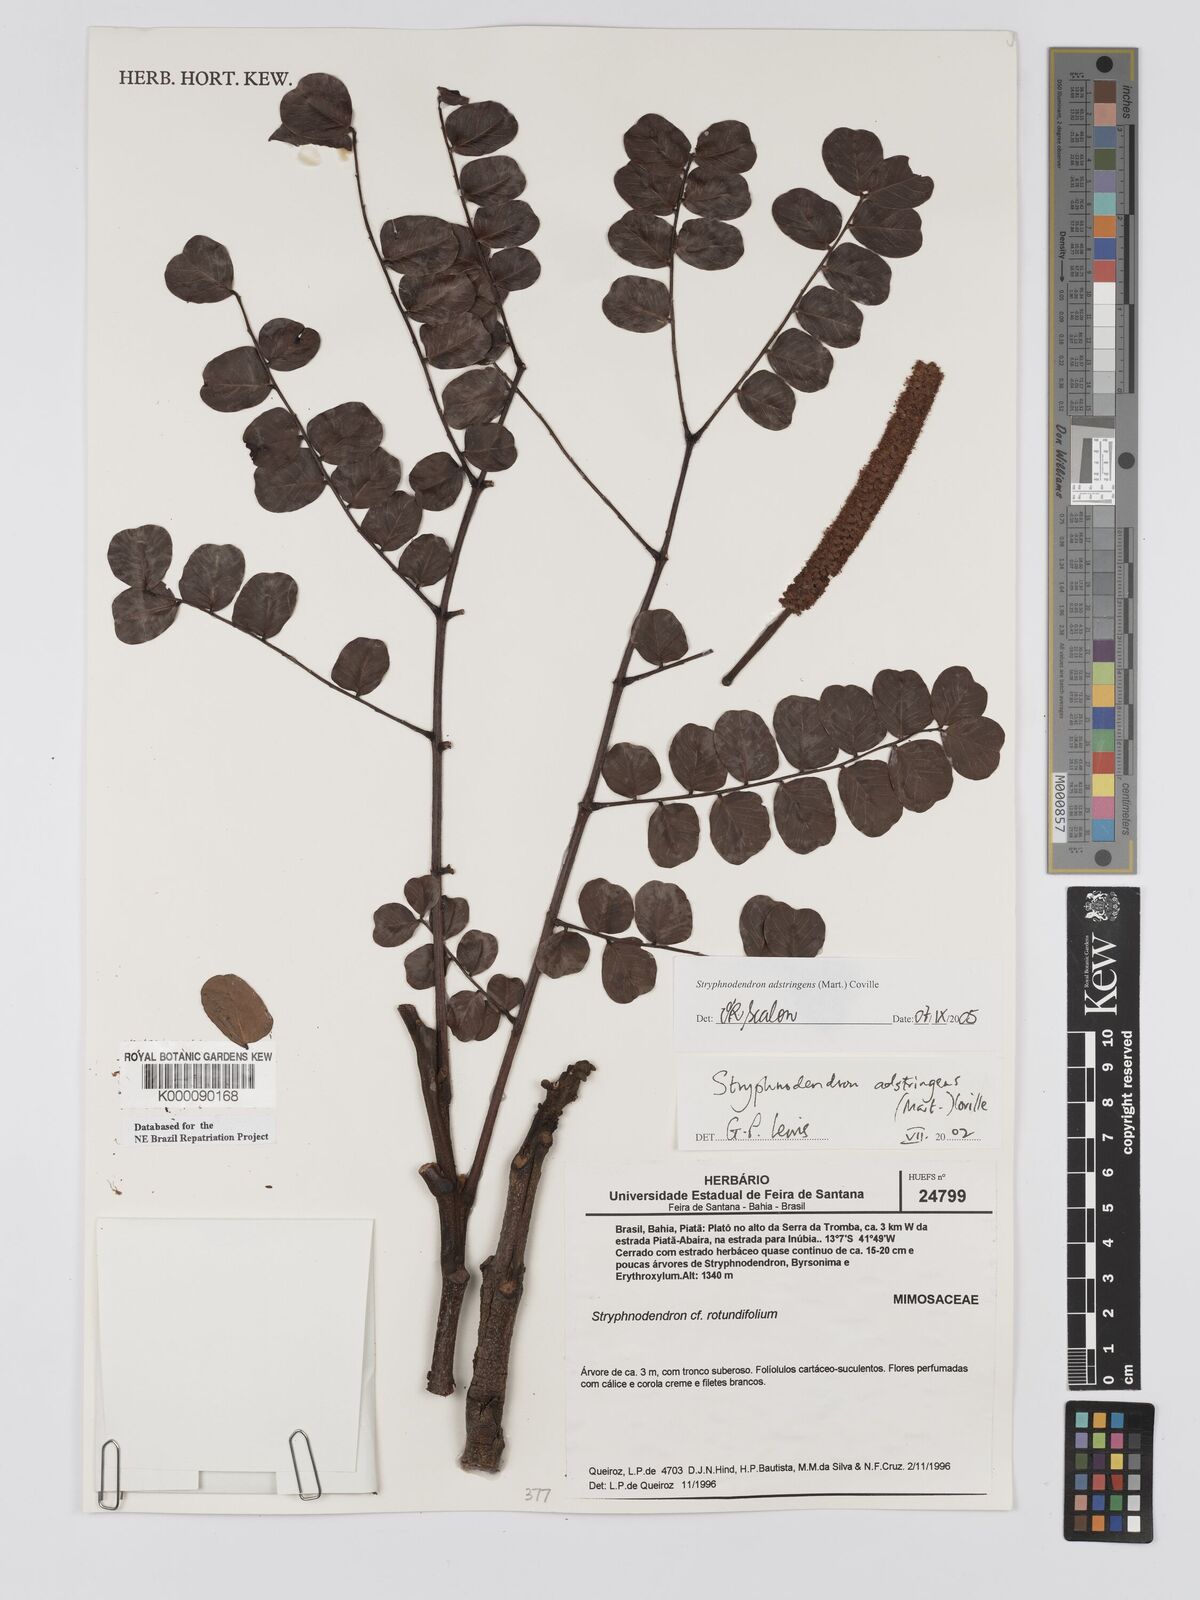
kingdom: Plantae
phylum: Tracheophyta
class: Magnoliopsida
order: Fabales
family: Fabaceae
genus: Stryphnodendron
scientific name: Stryphnodendron adstringens
